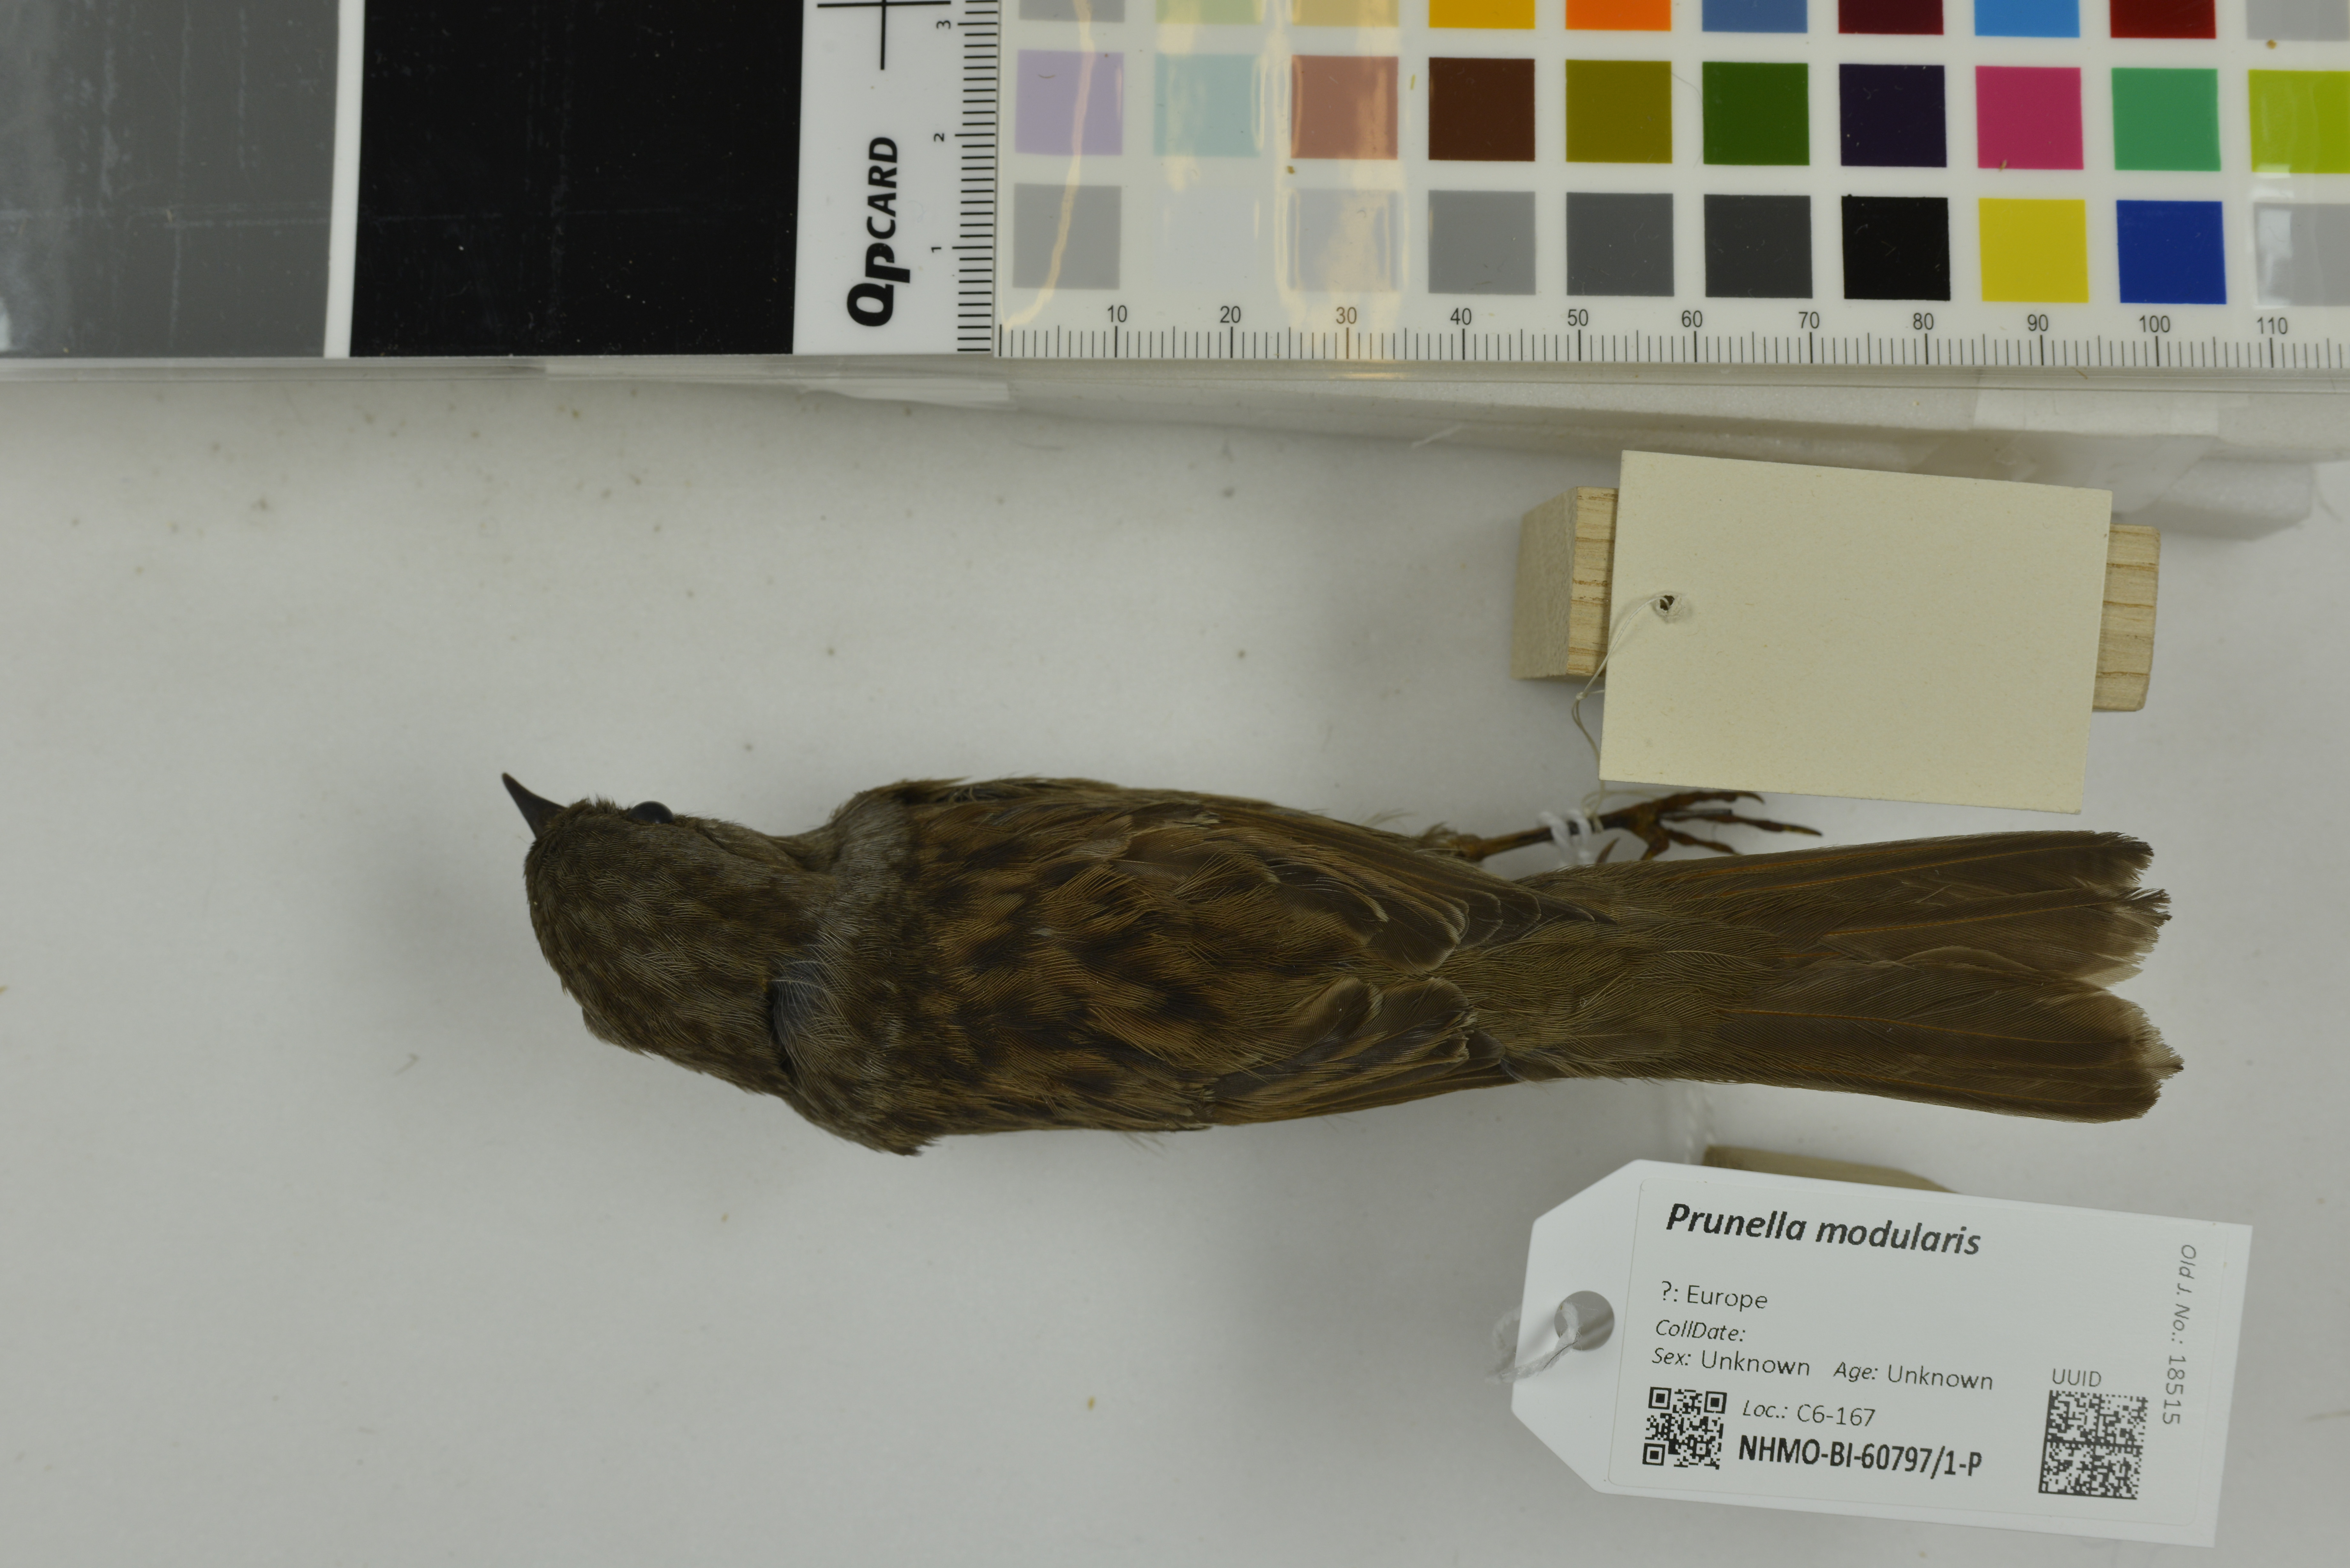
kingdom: Animalia
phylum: Chordata
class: Aves
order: Passeriformes
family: Prunellidae
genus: Prunella
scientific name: Prunella modularis
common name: Dunnock
